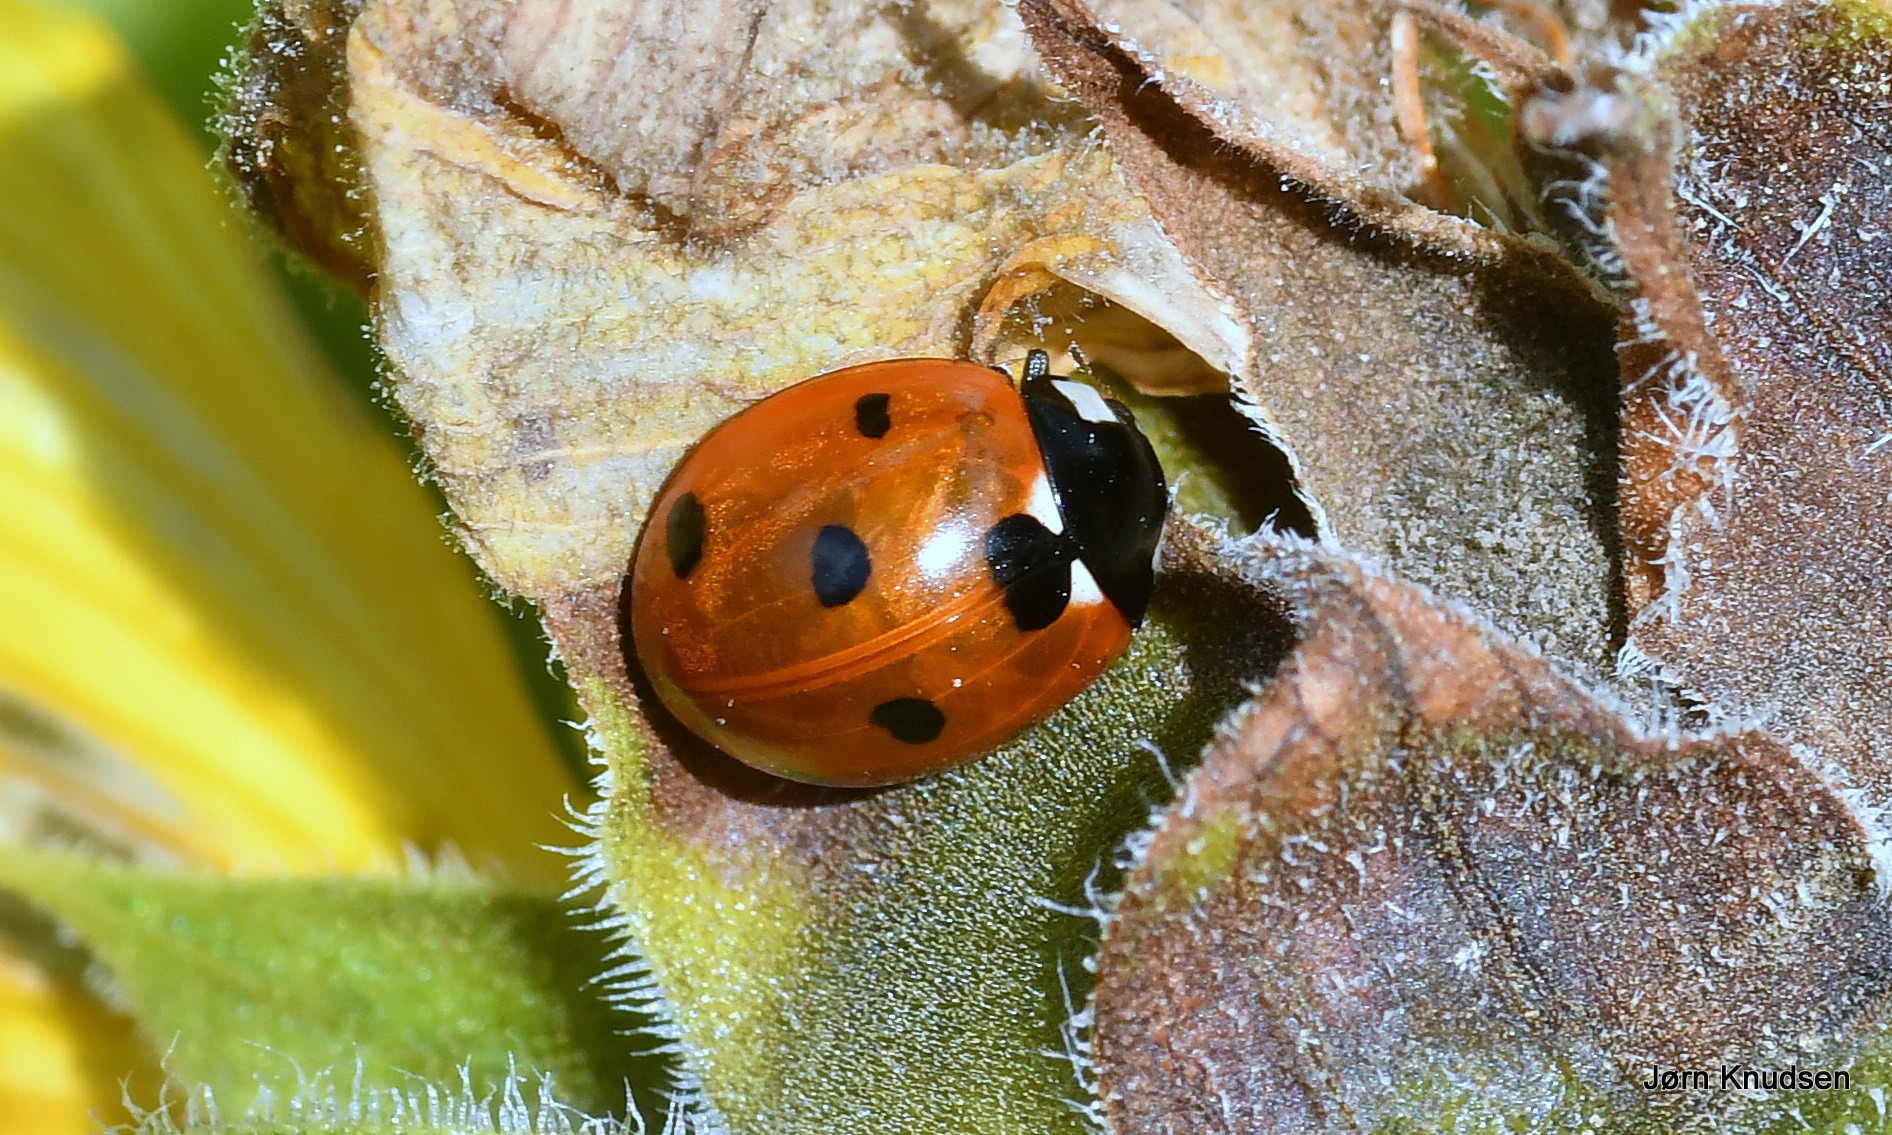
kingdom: Animalia
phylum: Arthropoda
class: Insecta
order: Coleoptera
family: Coccinellidae
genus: Coccinella
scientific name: Coccinella septempunctata
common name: Syvplettet mariehøne
